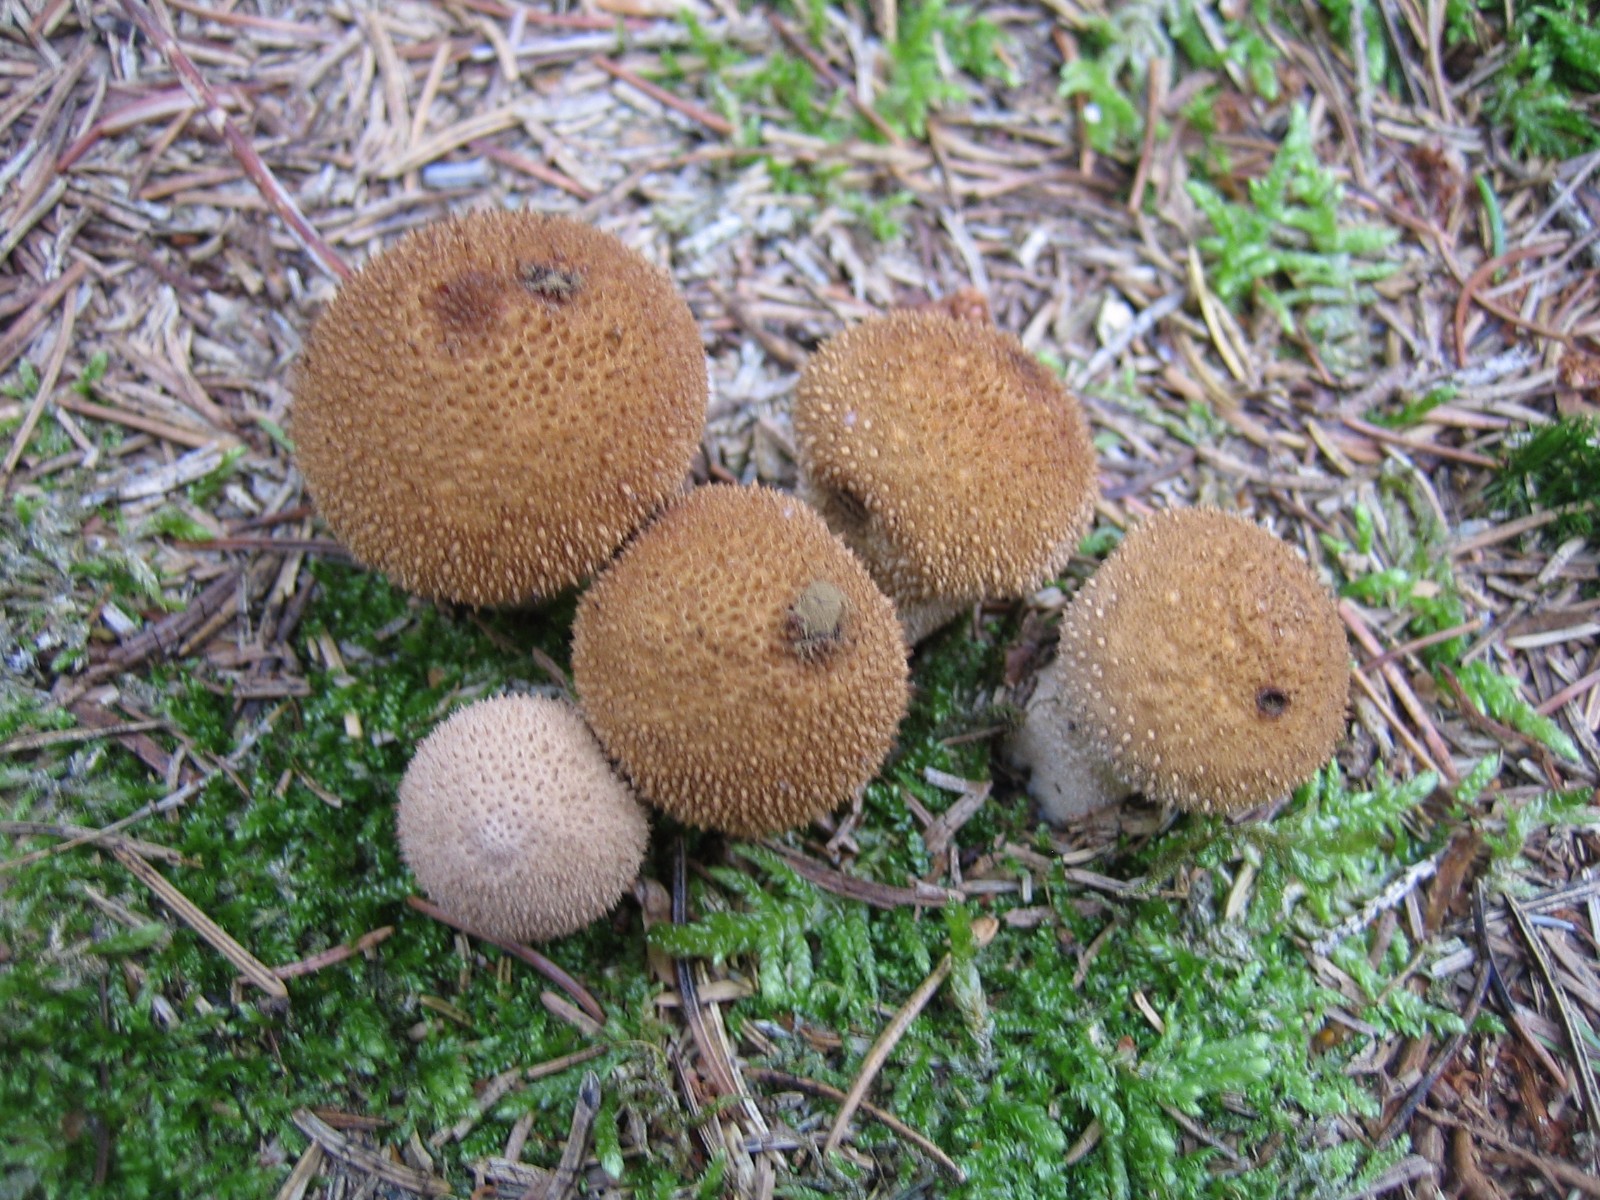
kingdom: Fungi
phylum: Basidiomycota
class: Agaricomycetes
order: Agaricales
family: Lycoperdaceae
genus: Lycoperdon
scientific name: Lycoperdon nigrescens
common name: sortagtig støvbold
